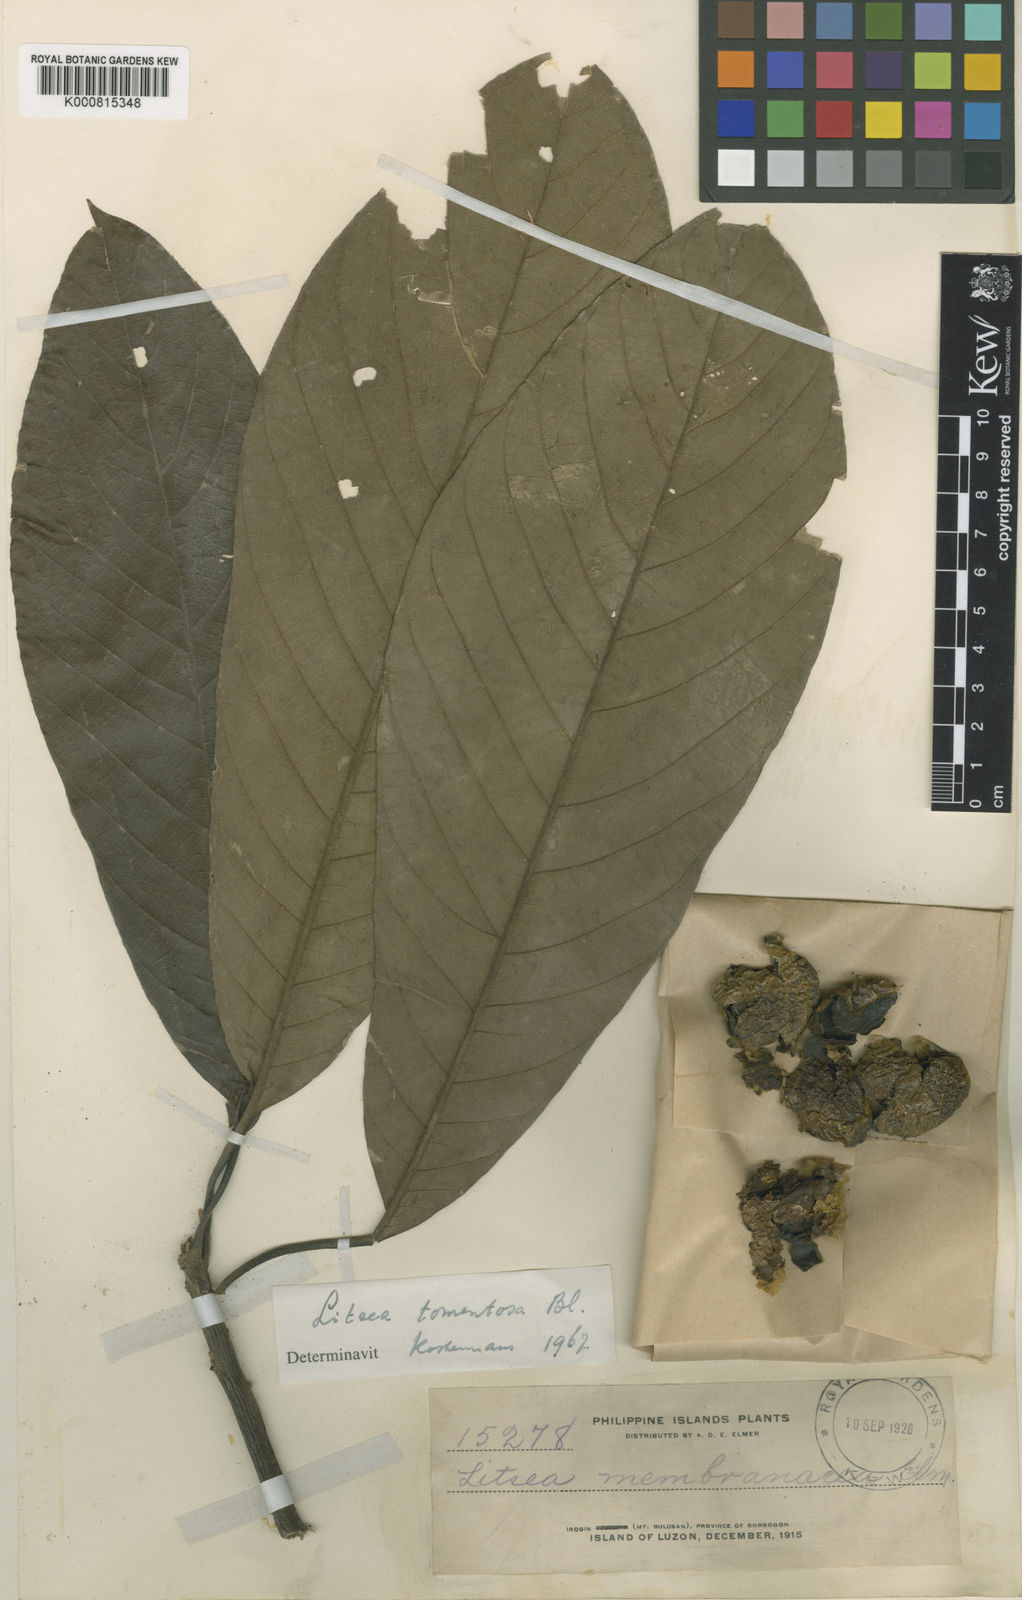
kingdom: Plantae
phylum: Tracheophyta
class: Magnoliopsida
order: Laurales
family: Lauraceae
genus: Litsea
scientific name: Litsea tomentosa
